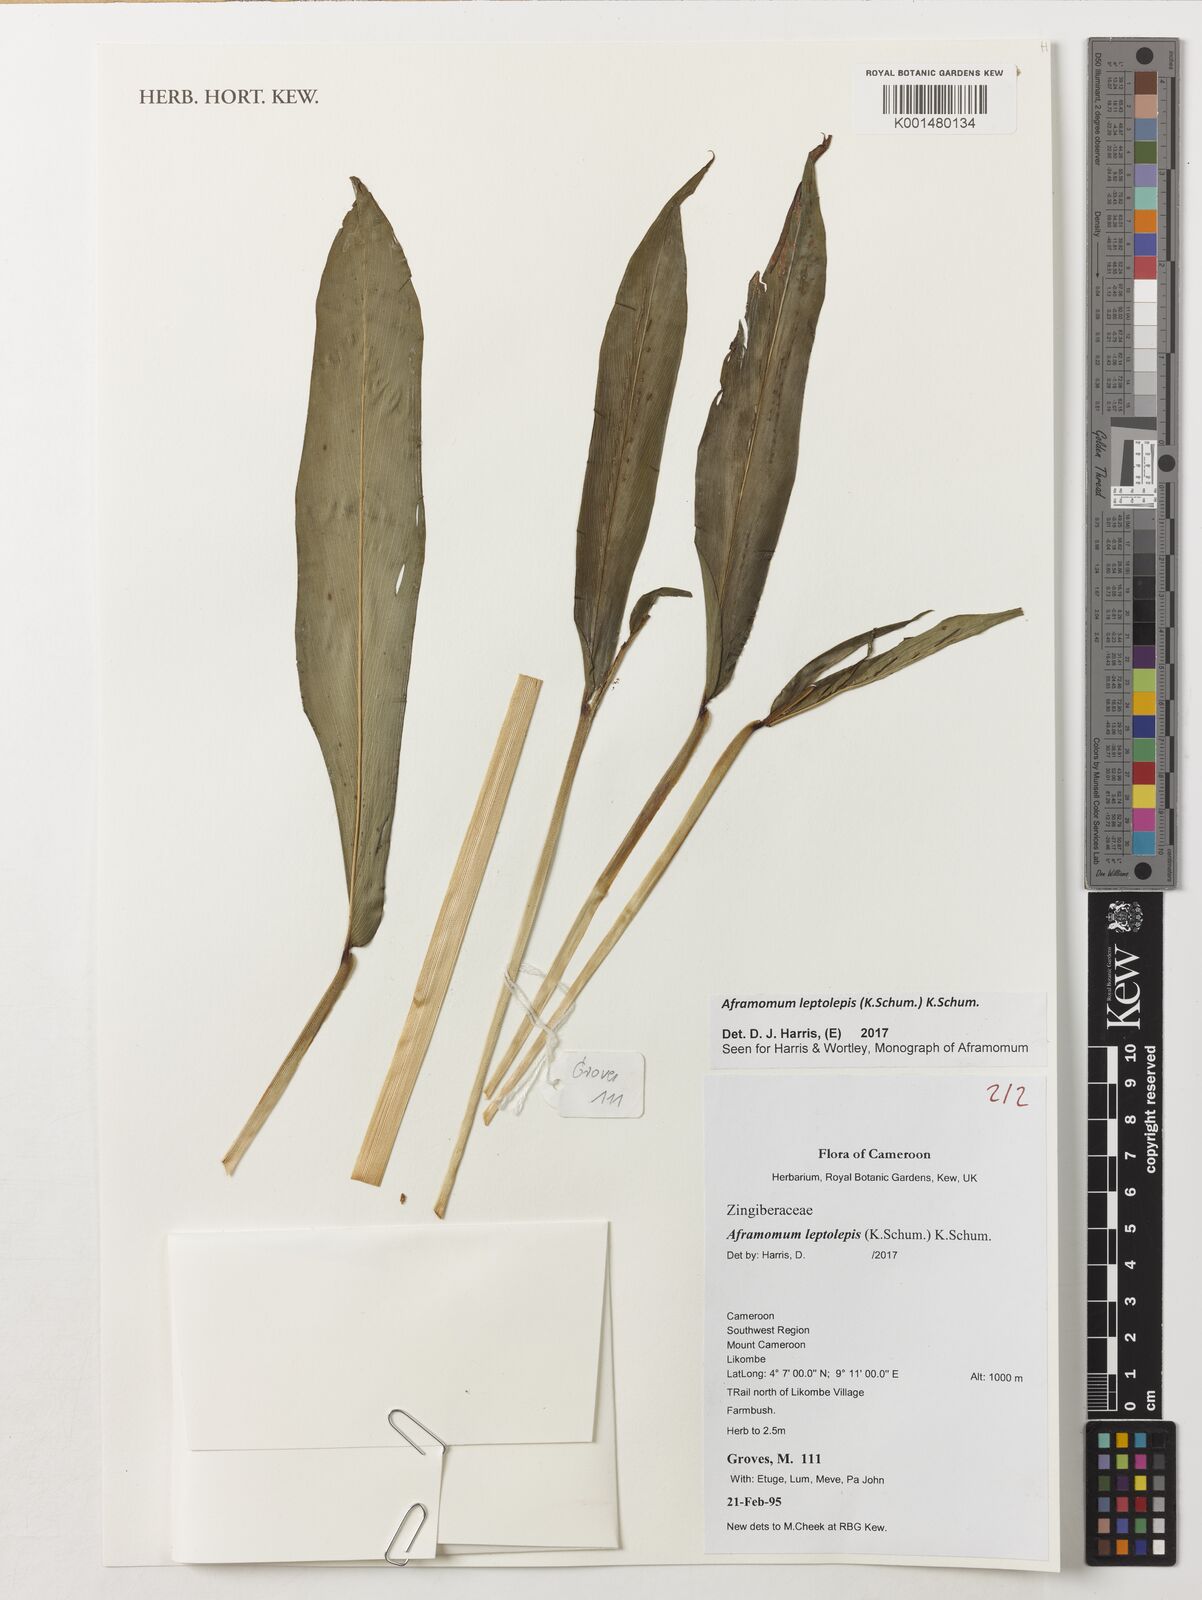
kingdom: Plantae
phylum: Tracheophyta
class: Liliopsida
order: Zingiberales
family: Zingiberaceae
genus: Aframomum
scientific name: Aframomum leptolepis
